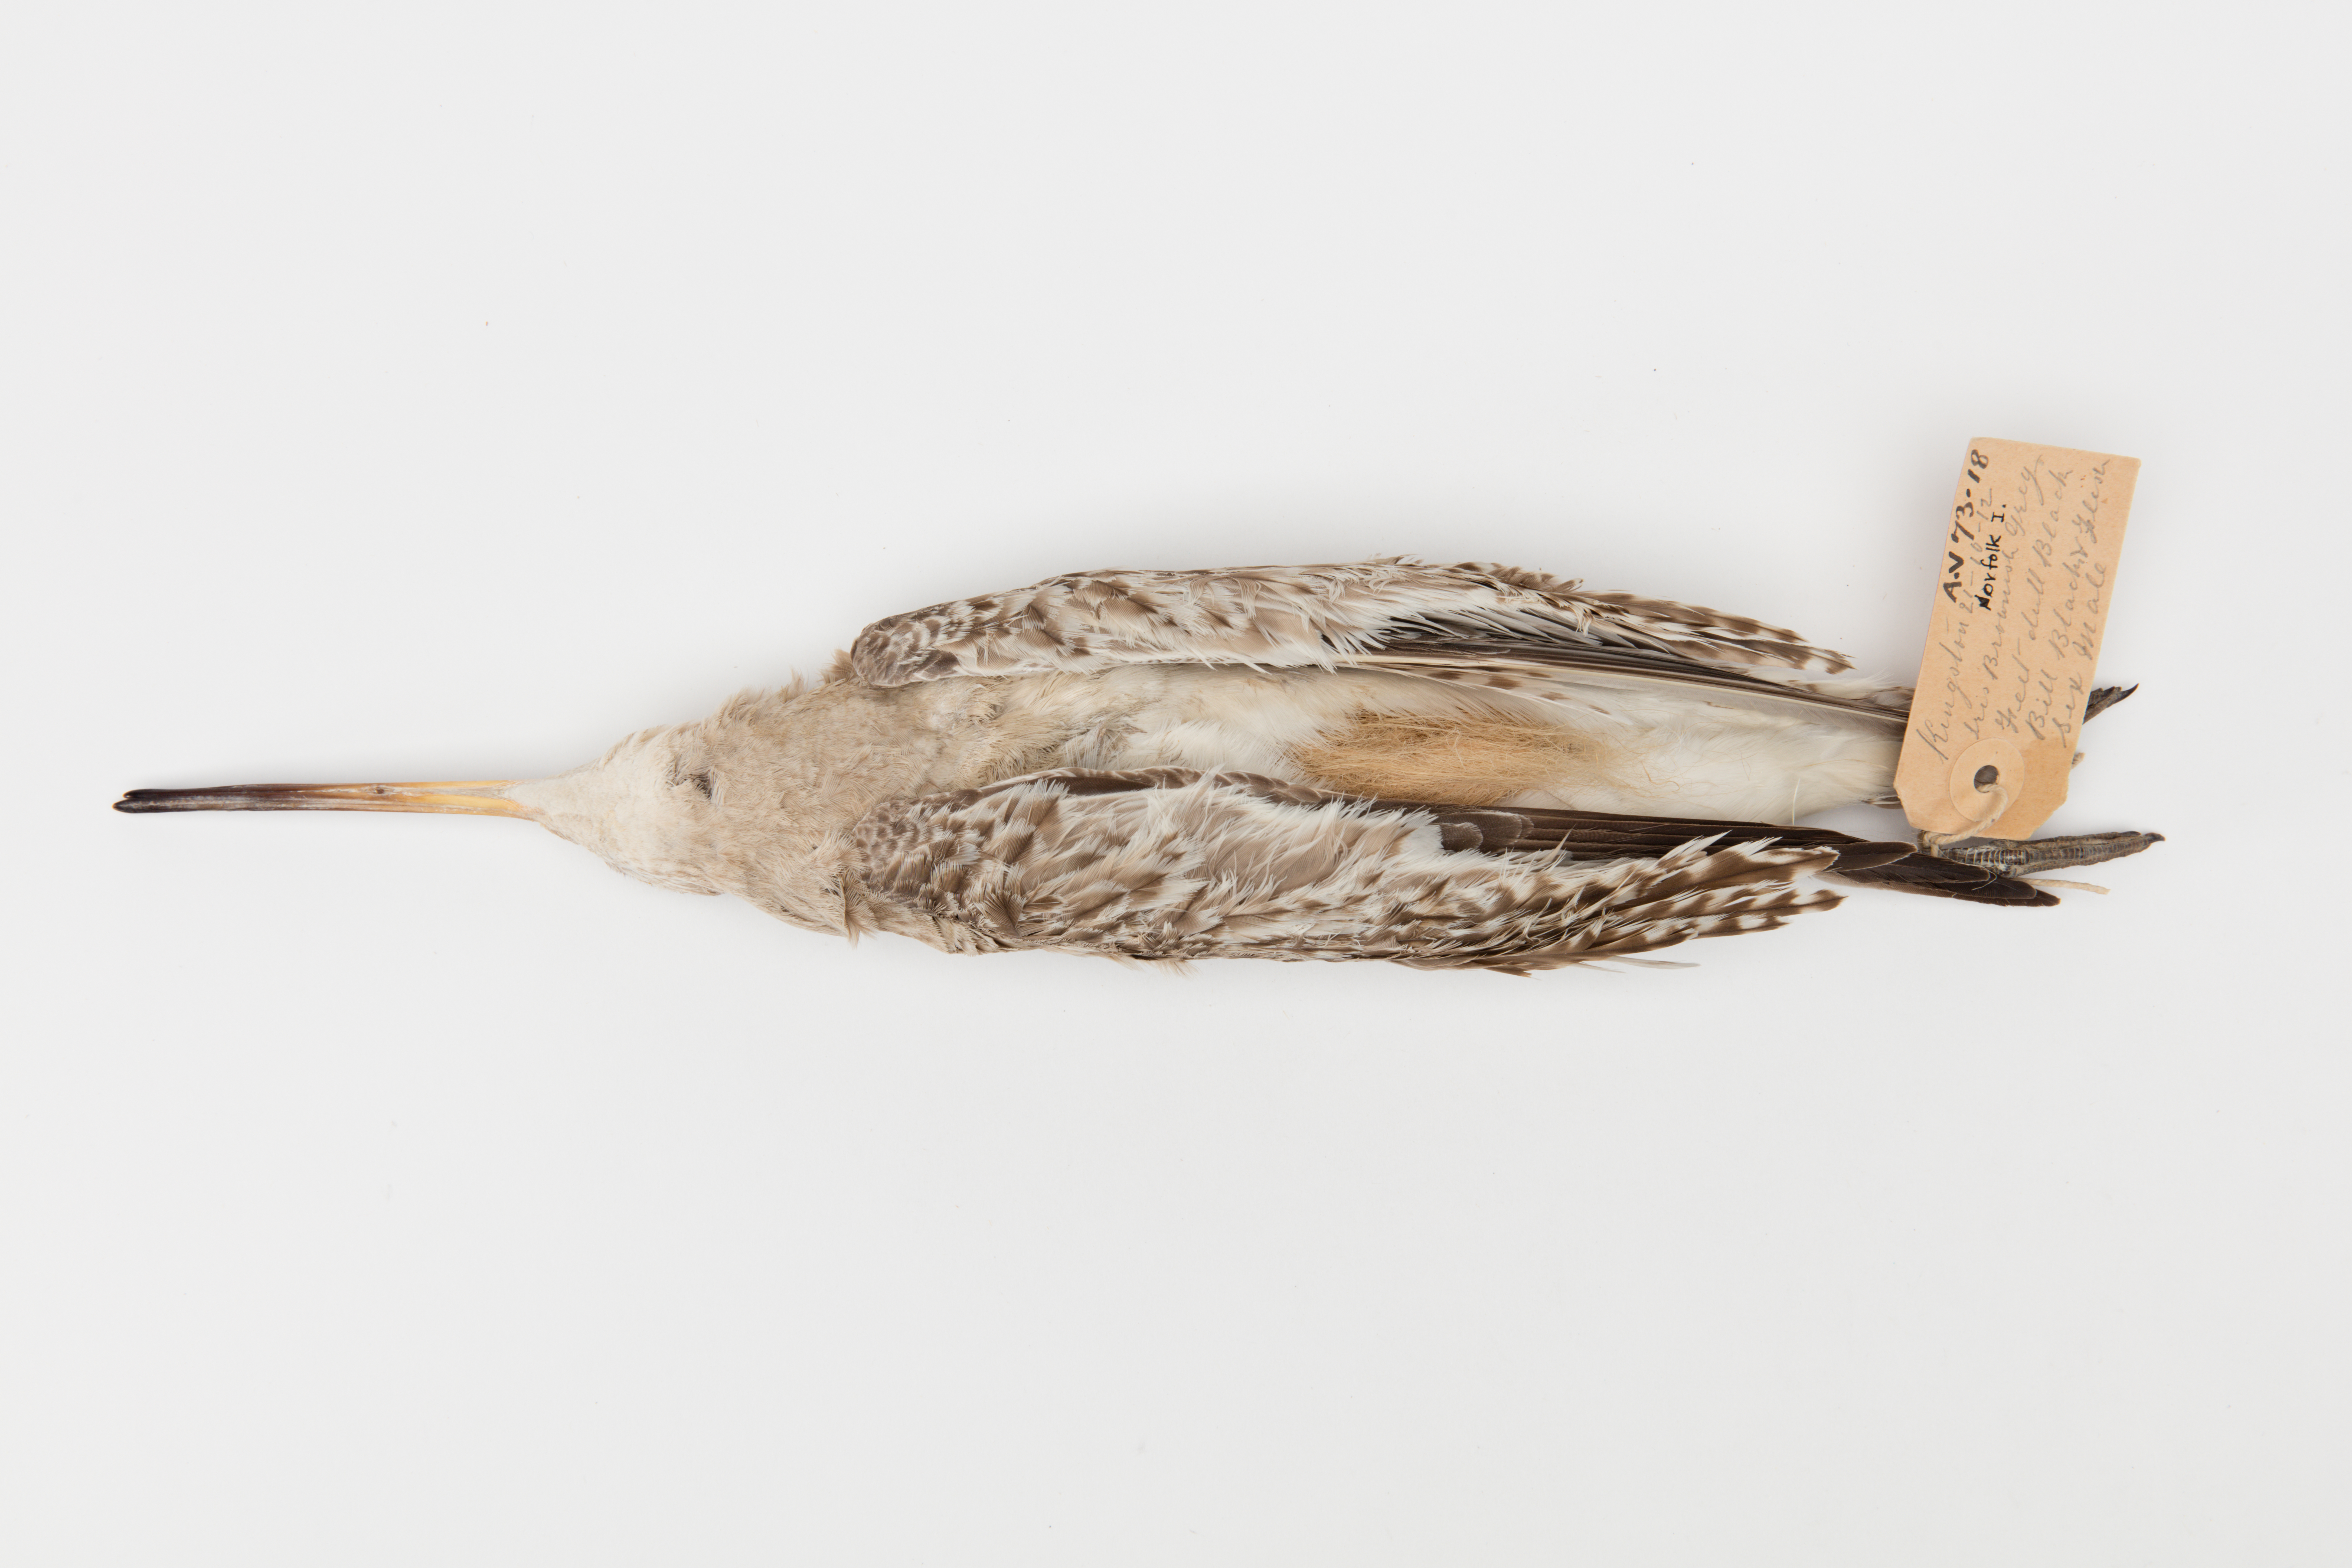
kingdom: Animalia
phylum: Chordata
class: Aves
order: Charadriiformes
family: Scolopacidae
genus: Limosa
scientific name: Limosa lapponica
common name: Bar-tailed godwit
